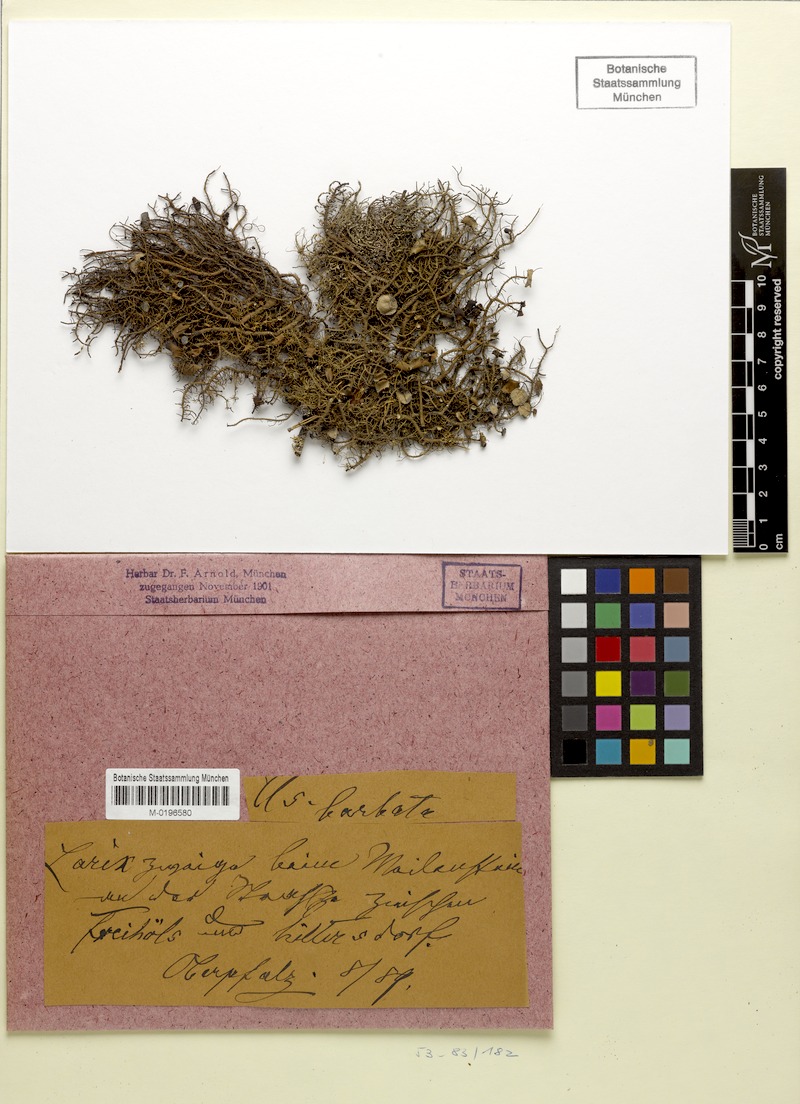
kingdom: Fungi
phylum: Ascomycota
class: Lecanoromycetes
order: Lecanorales
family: Parmeliaceae
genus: Usnea
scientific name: Usnea florida
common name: Witches' whiskers lichen
